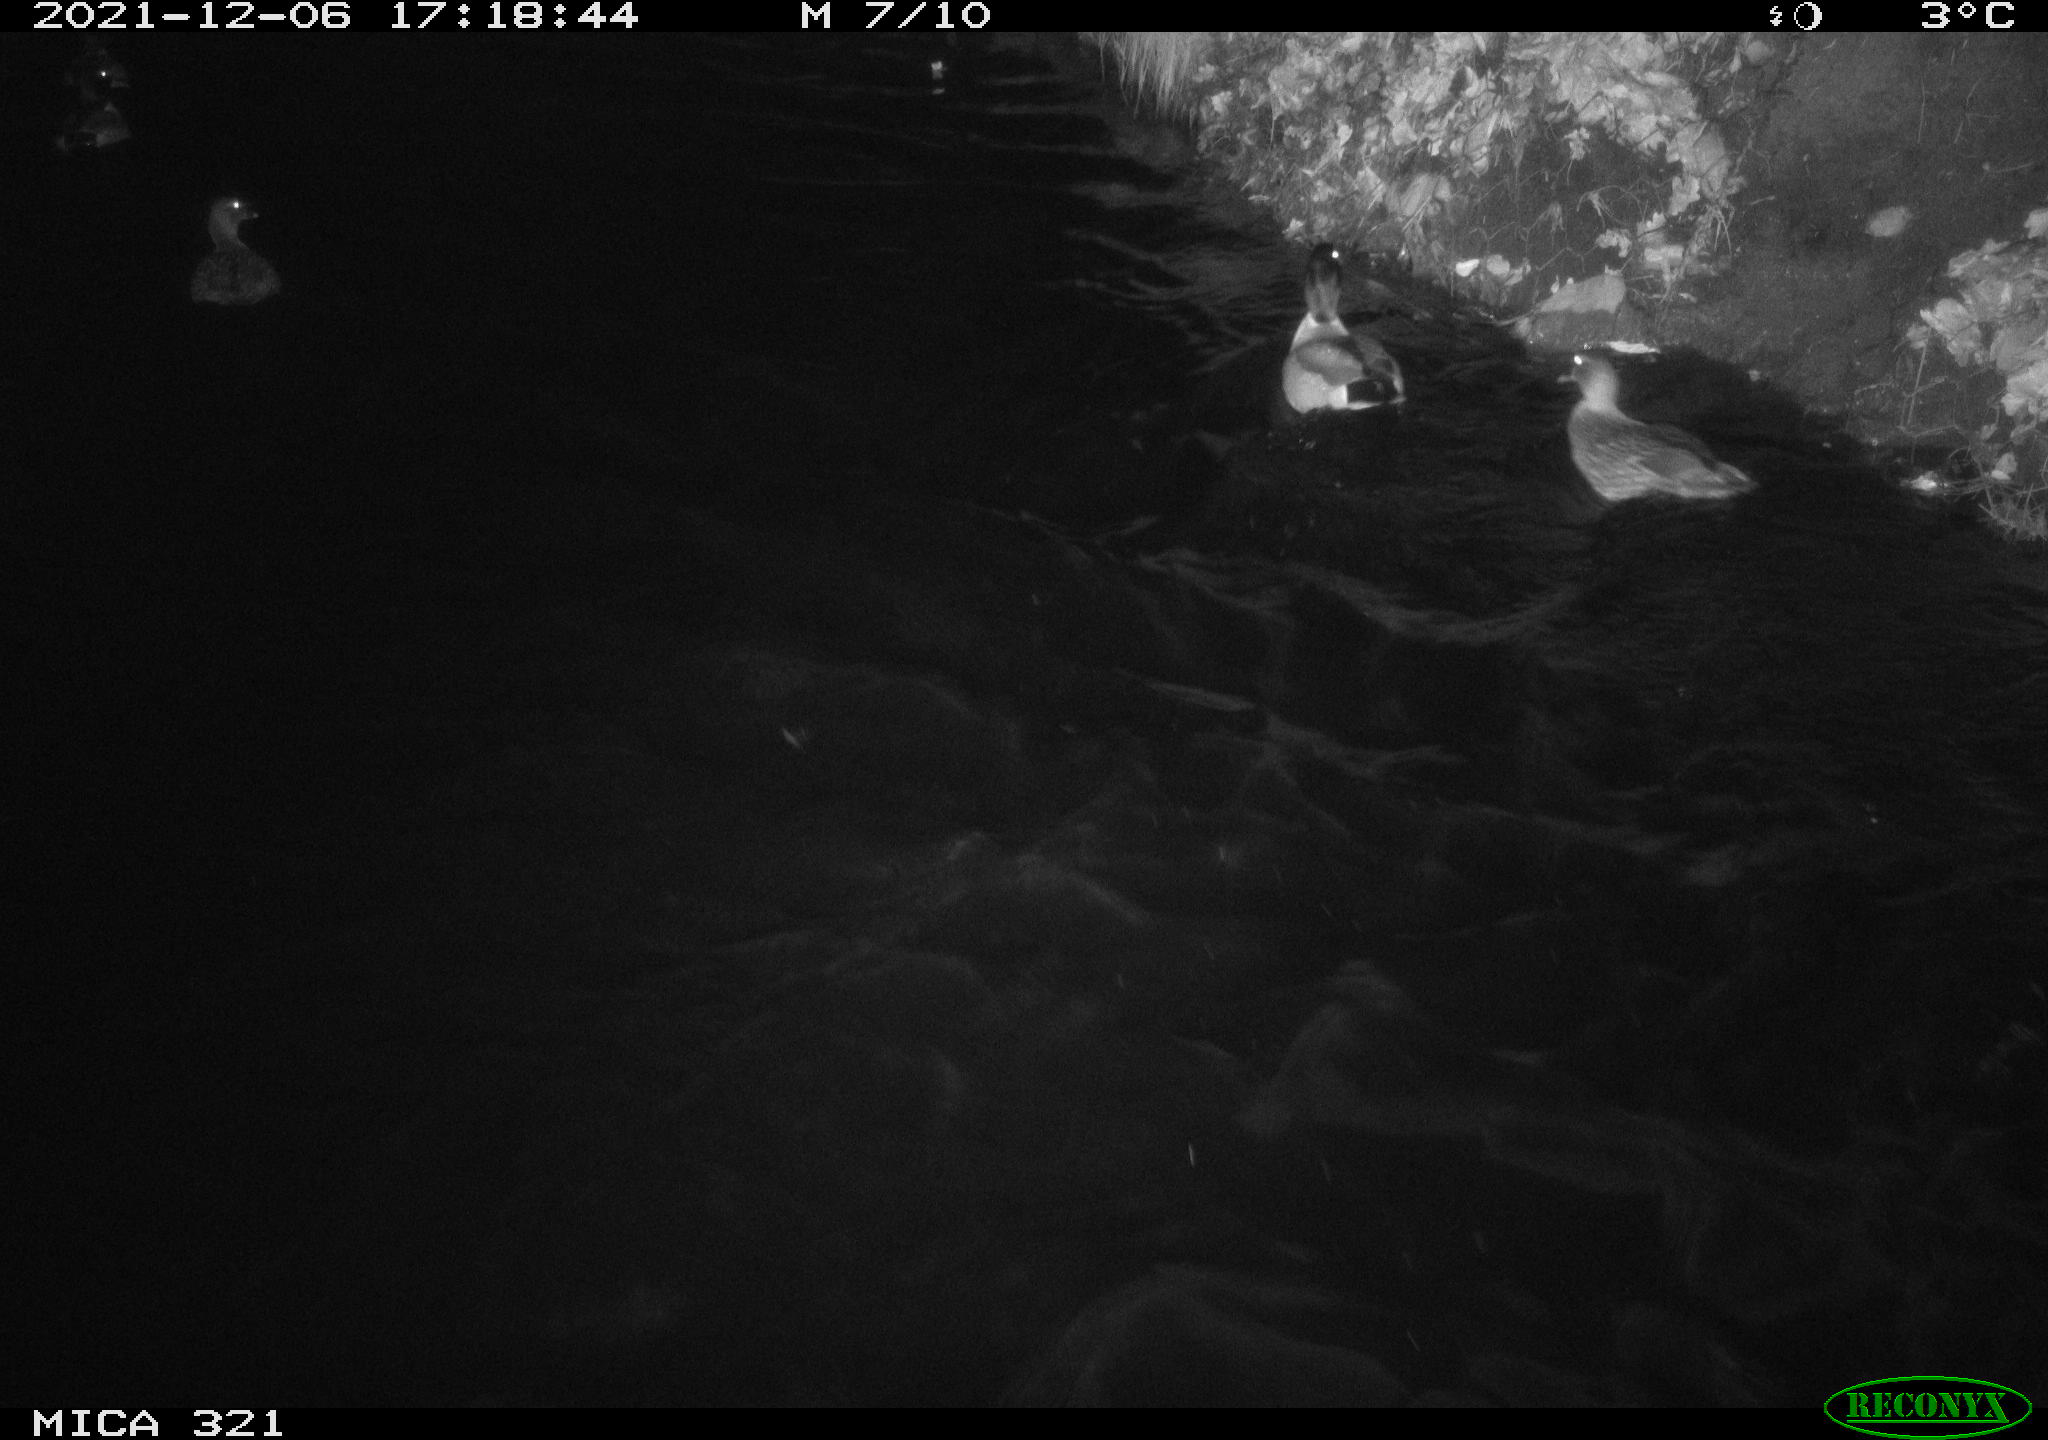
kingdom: Animalia
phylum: Chordata
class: Aves
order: Anseriformes
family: Anatidae
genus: Anas
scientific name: Anas
